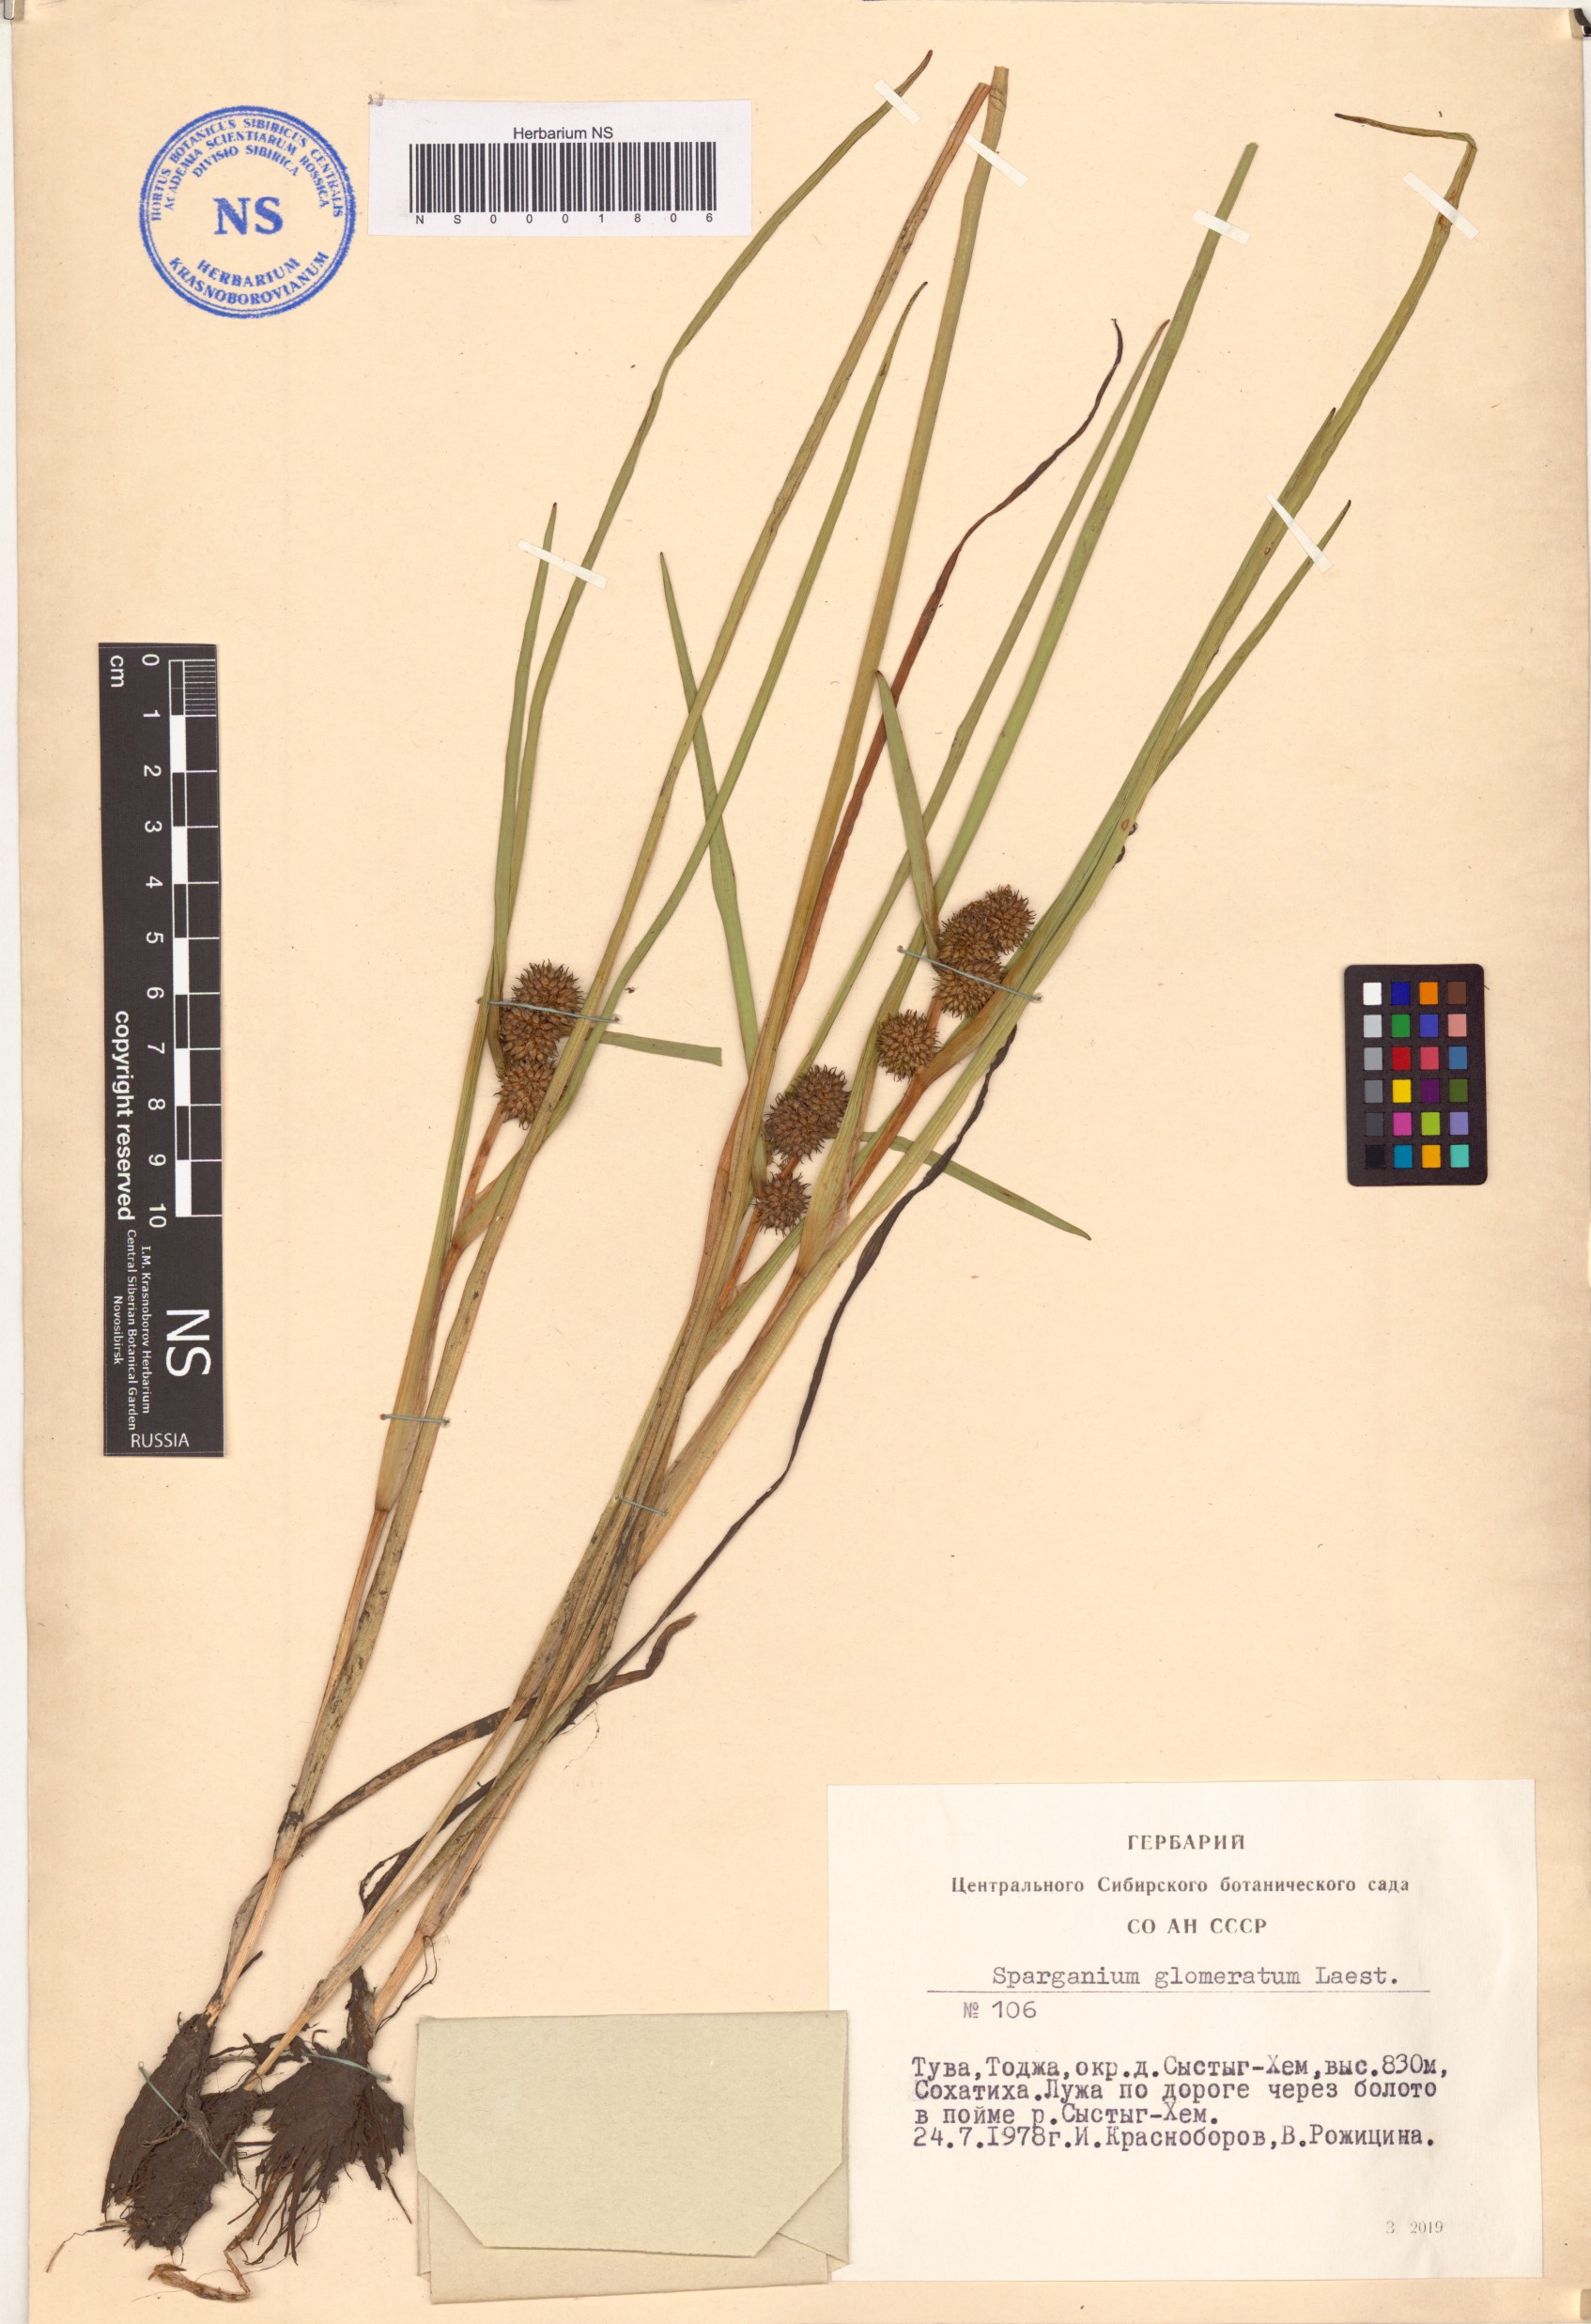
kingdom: Plantae
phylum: Tracheophyta
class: Liliopsida
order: Poales
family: Typhaceae
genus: Sparganium
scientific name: Sparganium glomeratum
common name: Clustered burreed
